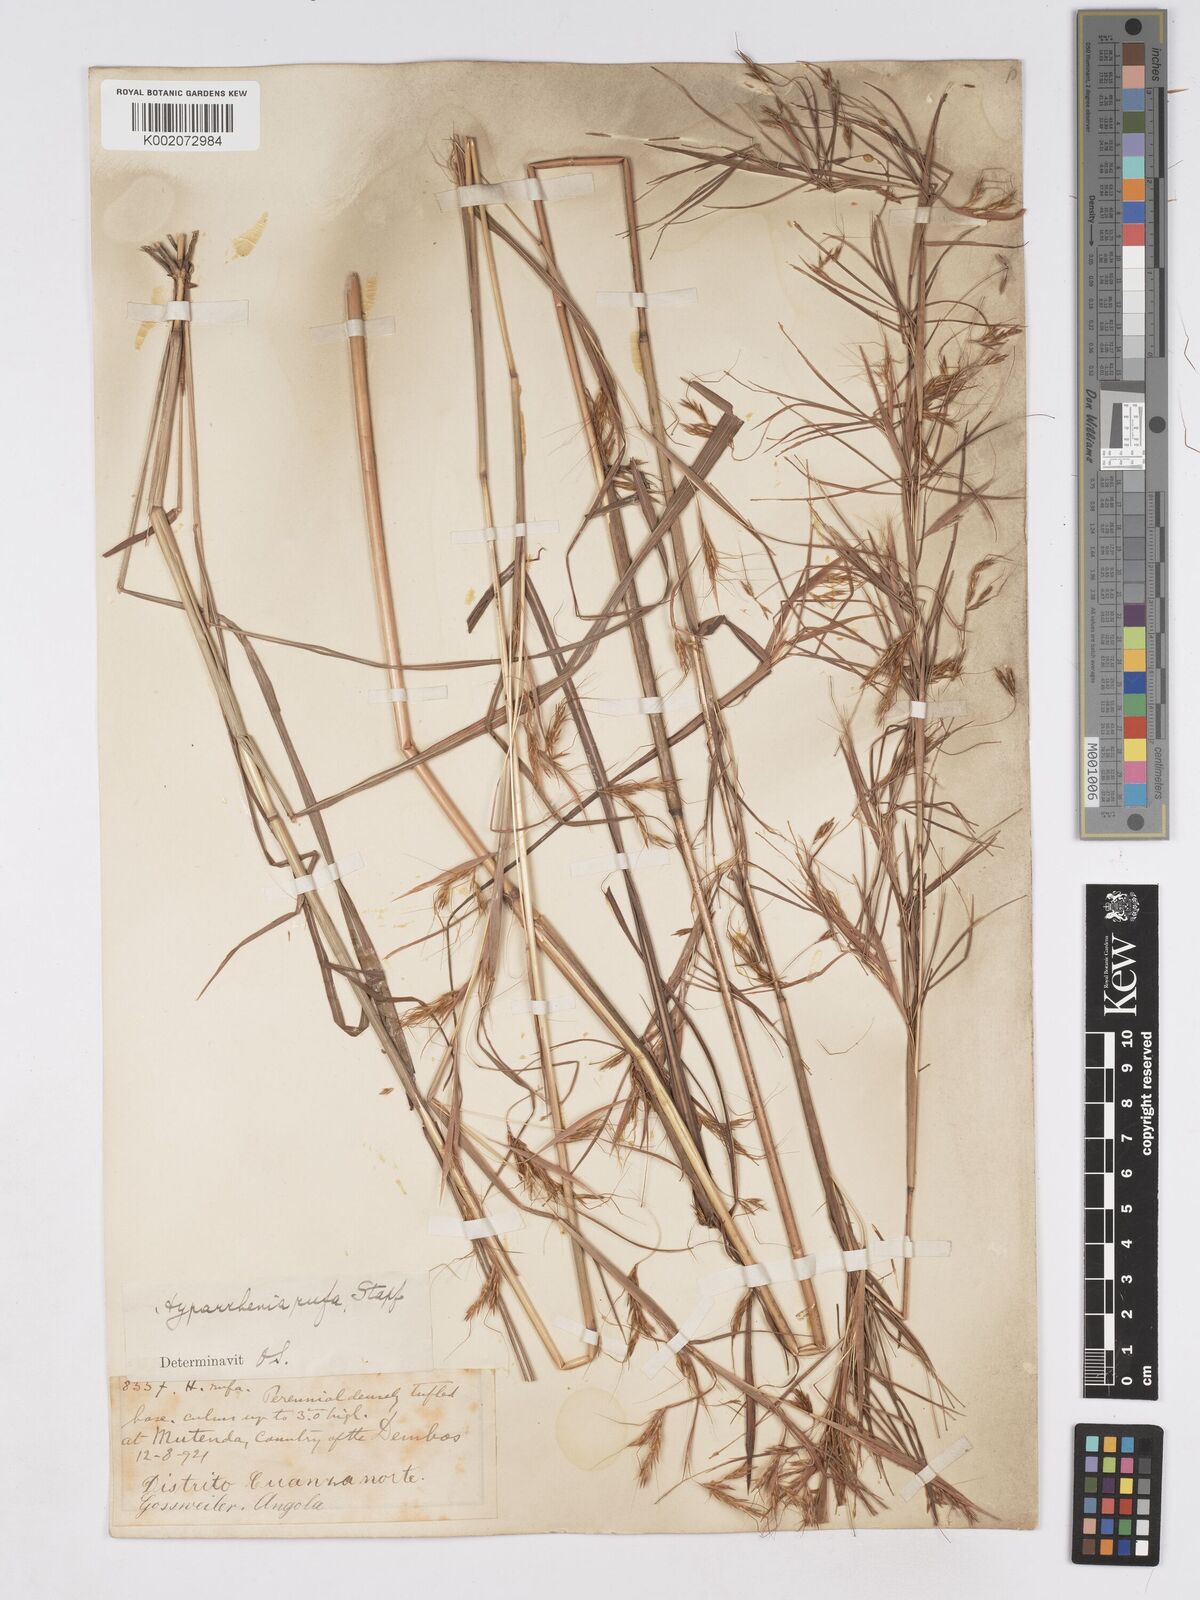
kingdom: Plantae
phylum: Tracheophyta
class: Liliopsida
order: Poales
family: Poaceae
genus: Hyparrhenia
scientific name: Hyparrhenia rufa
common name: Jaraguagrass
